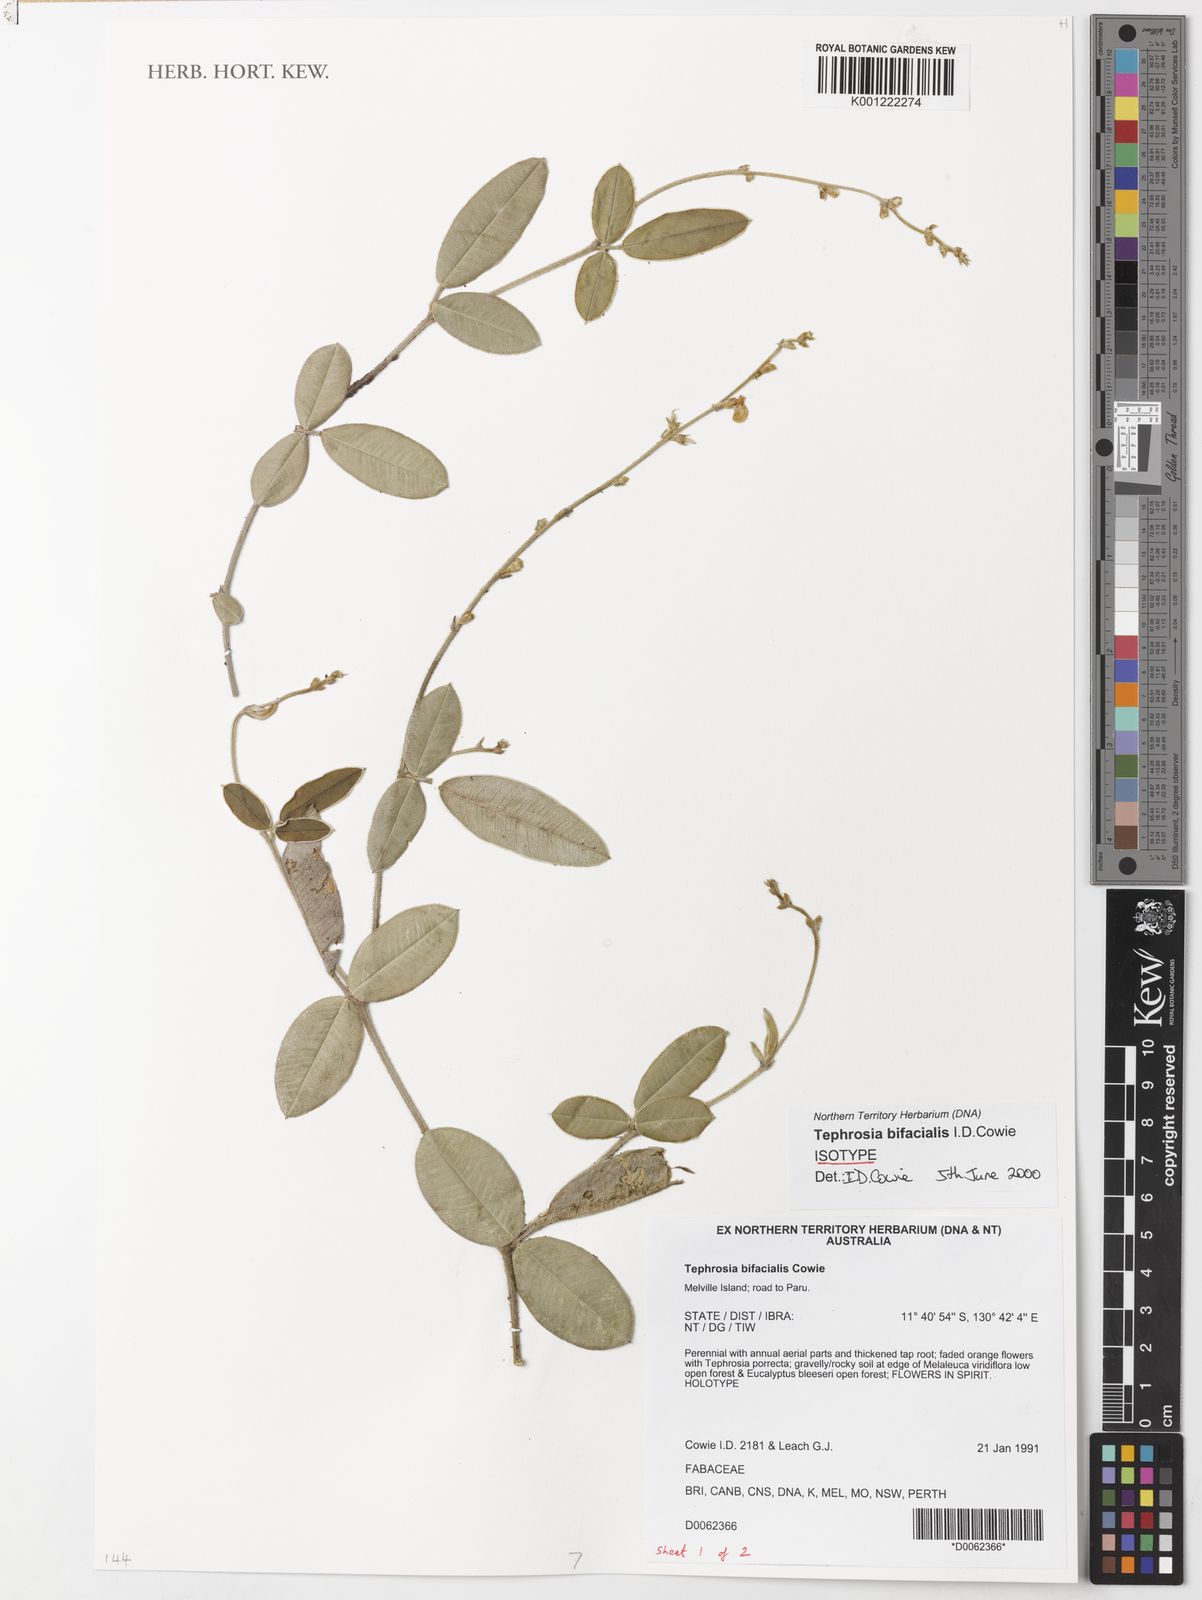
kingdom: Plantae
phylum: Tracheophyta
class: Magnoliopsida
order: Fabales
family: Fabaceae
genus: Tephrosia
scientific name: Tephrosia bifacialis
